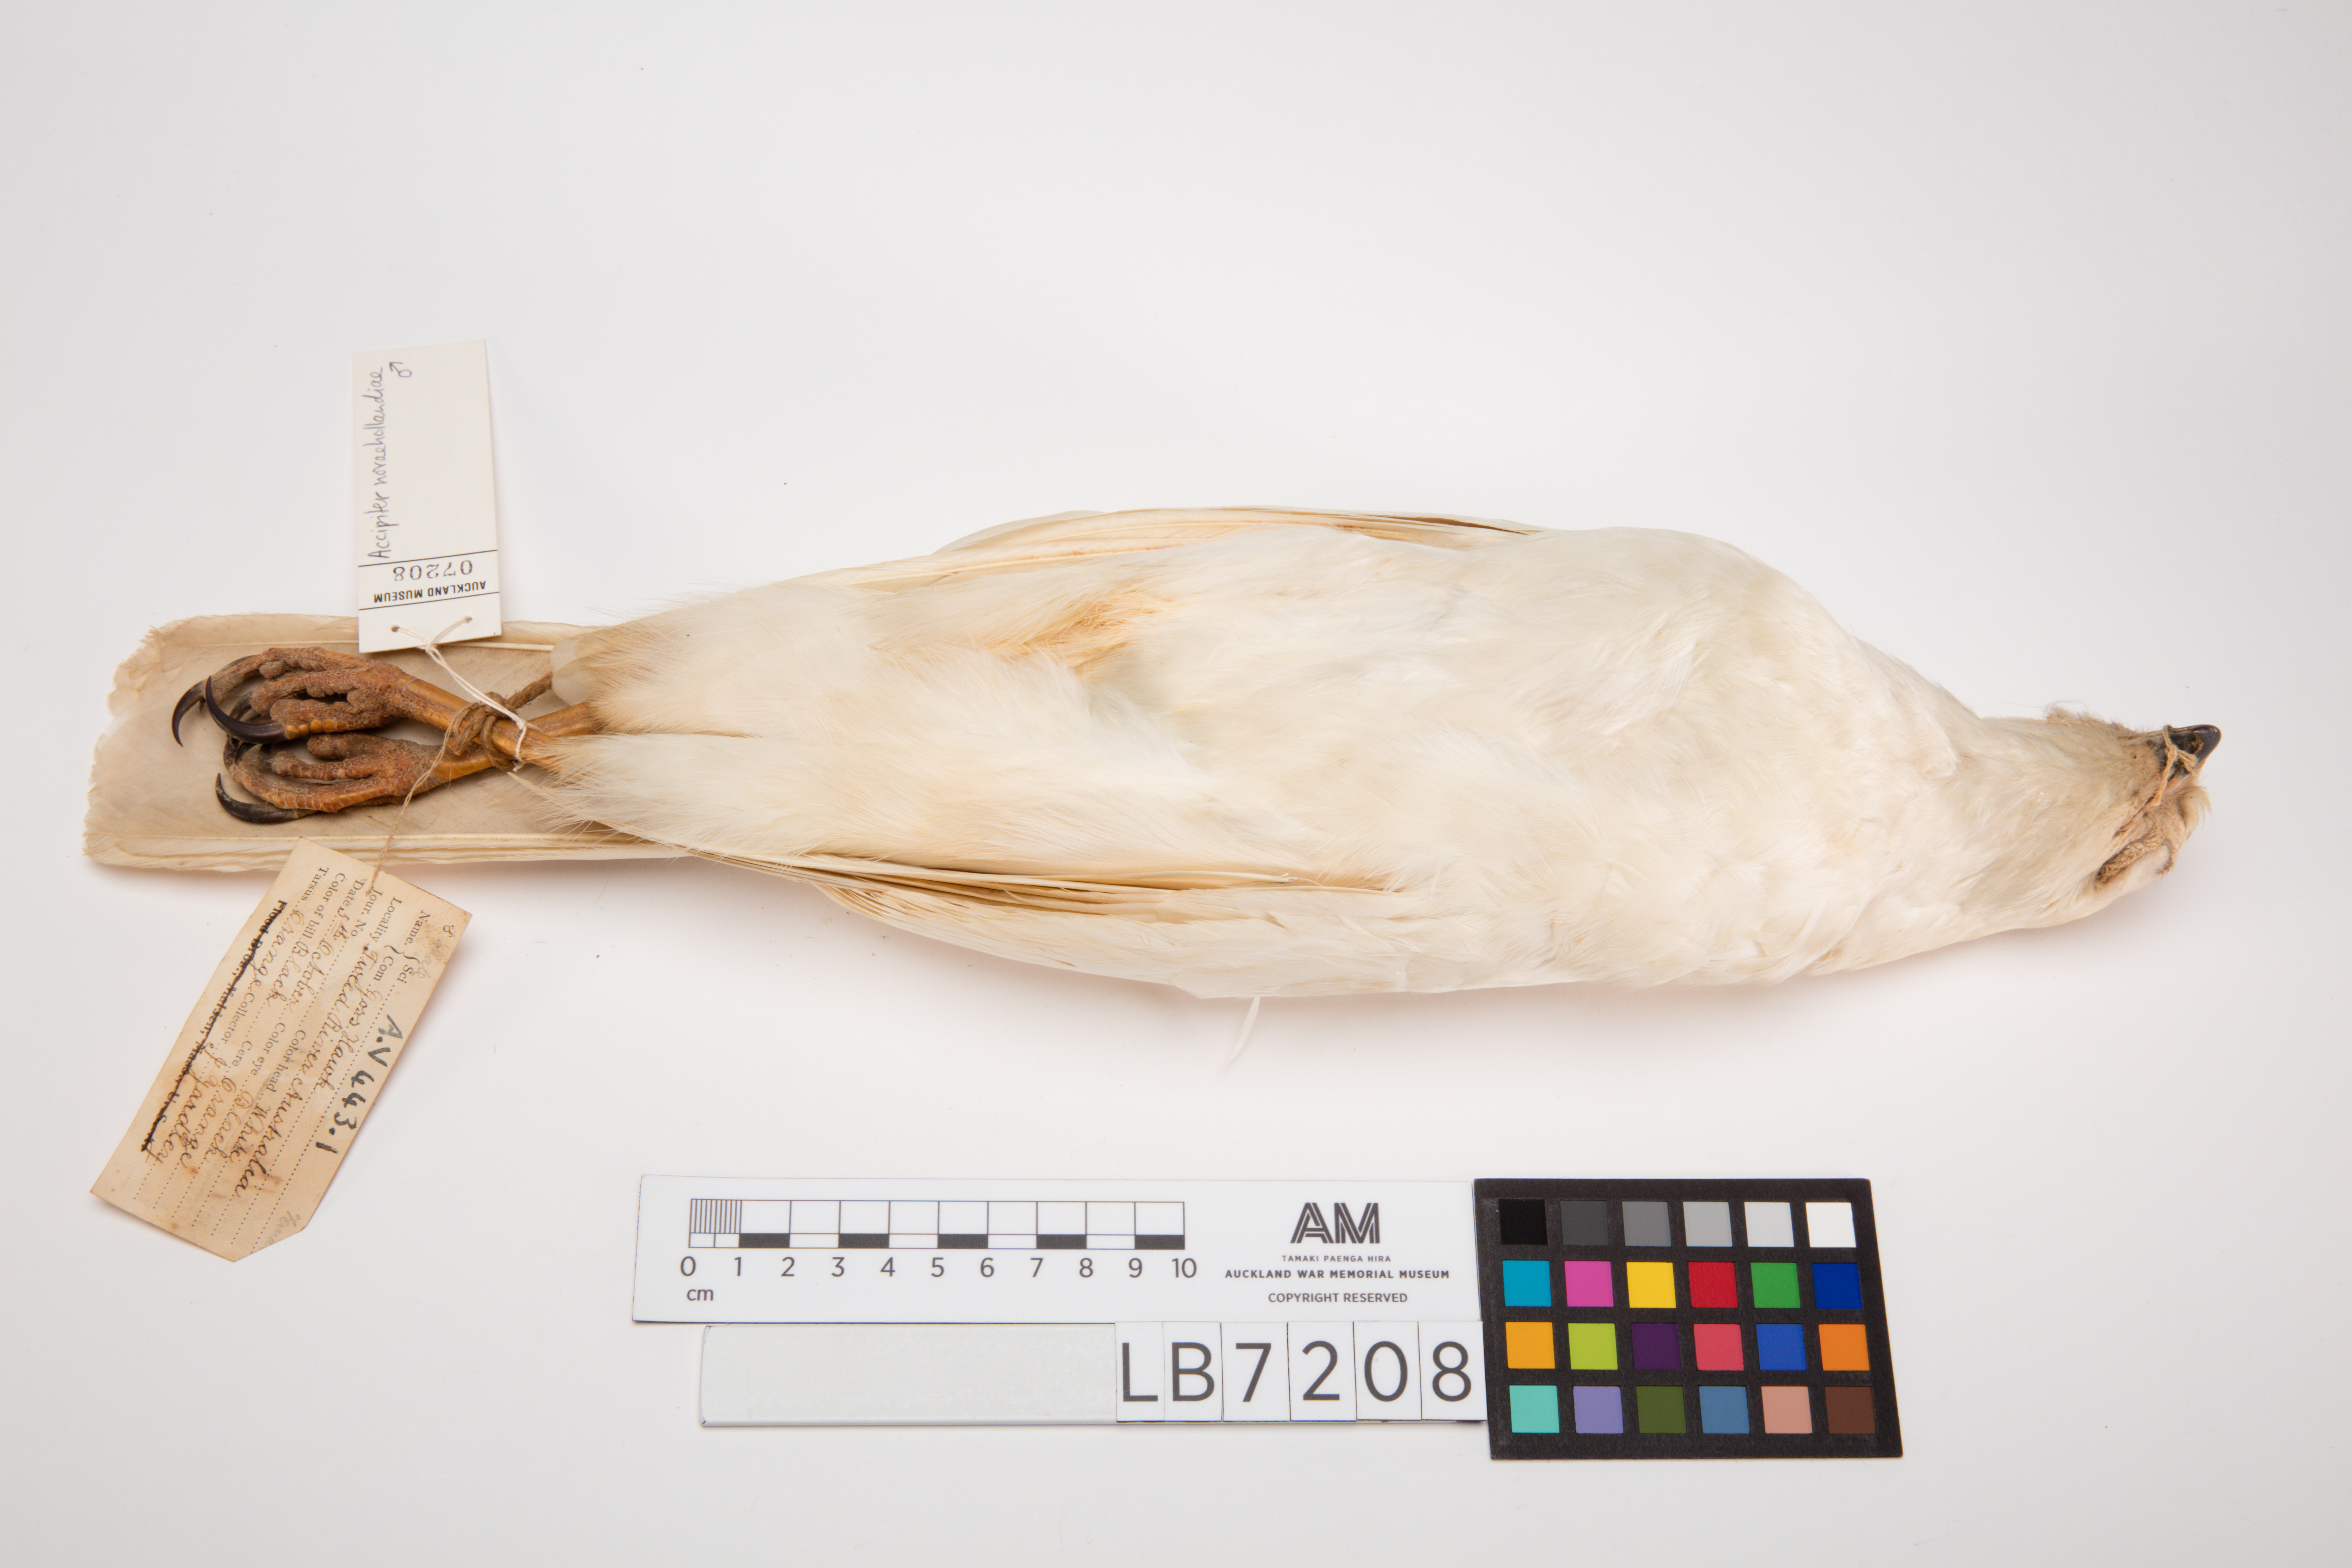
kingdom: Animalia
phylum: Chordata
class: Aves
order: Accipitriformes
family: Accipitridae
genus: Accipiter
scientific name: Accipiter novaehollandiae
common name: Grey goshawk
